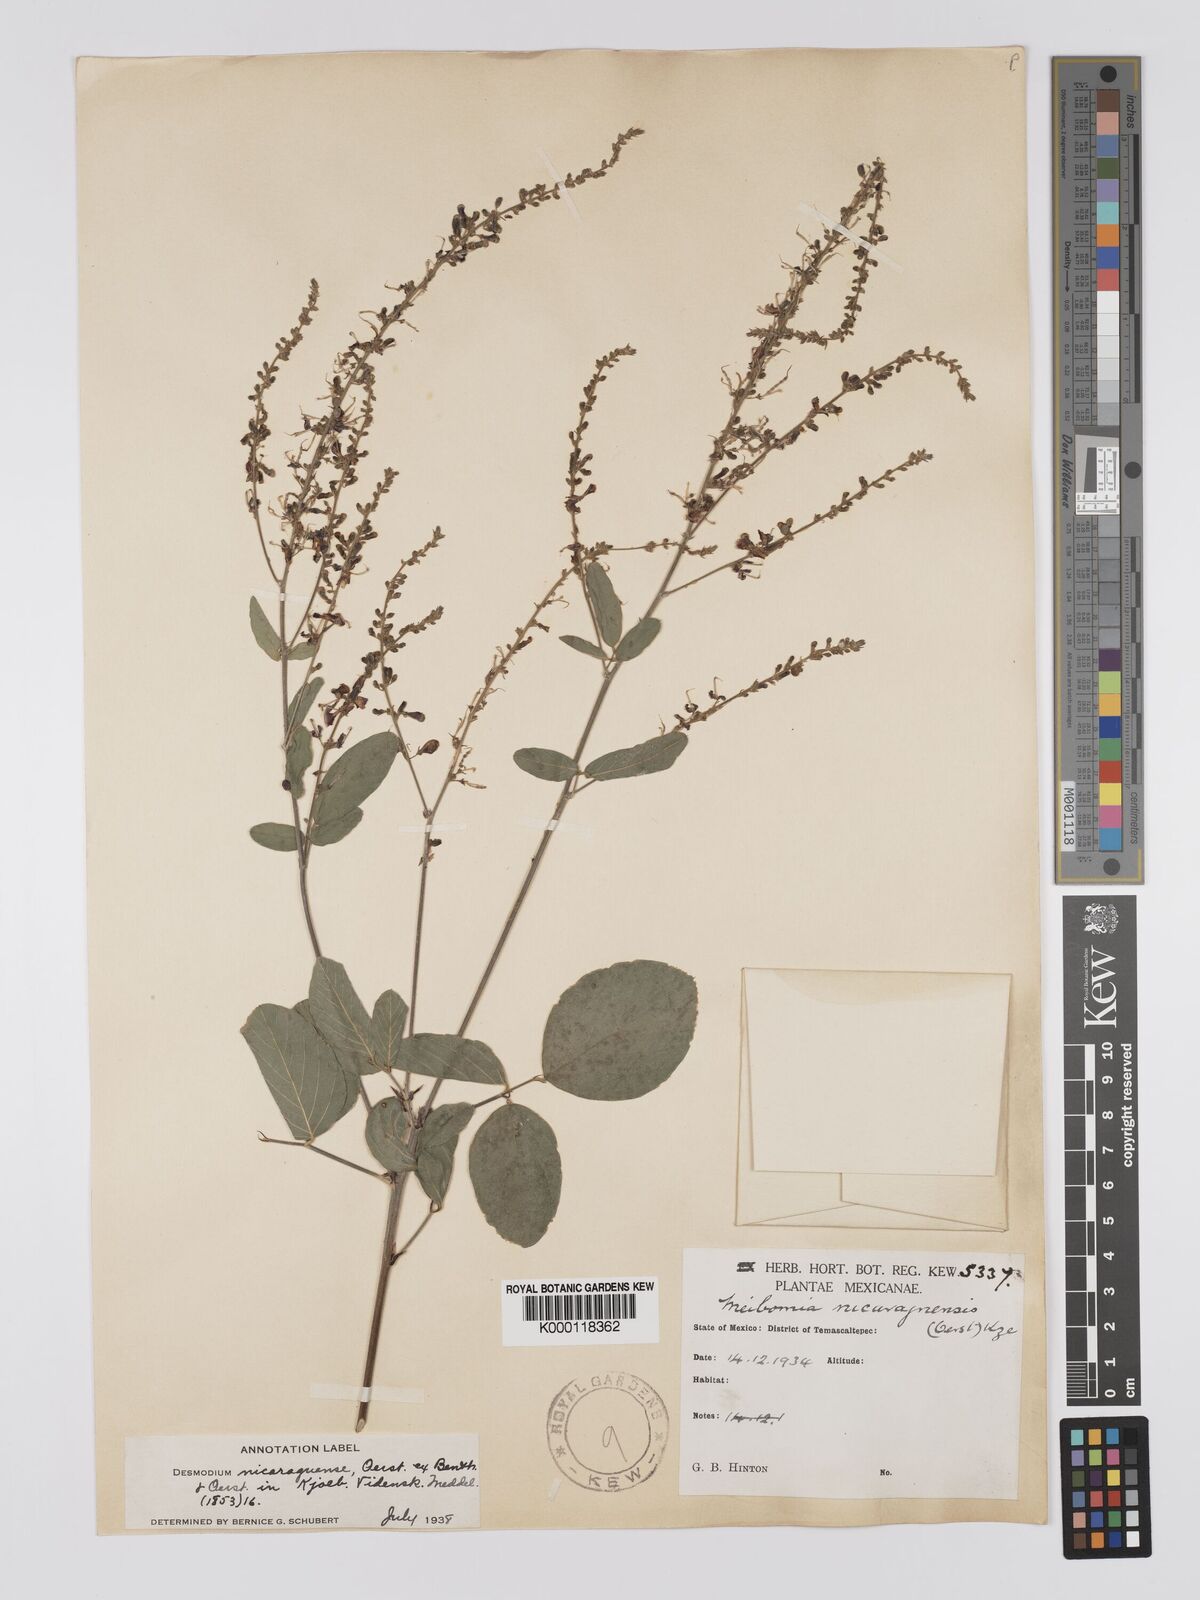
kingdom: Plantae
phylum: Tracheophyta
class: Magnoliopsida
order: Fabales
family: Fabaceae
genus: Desmodium
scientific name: Desmodium nicaraguense
